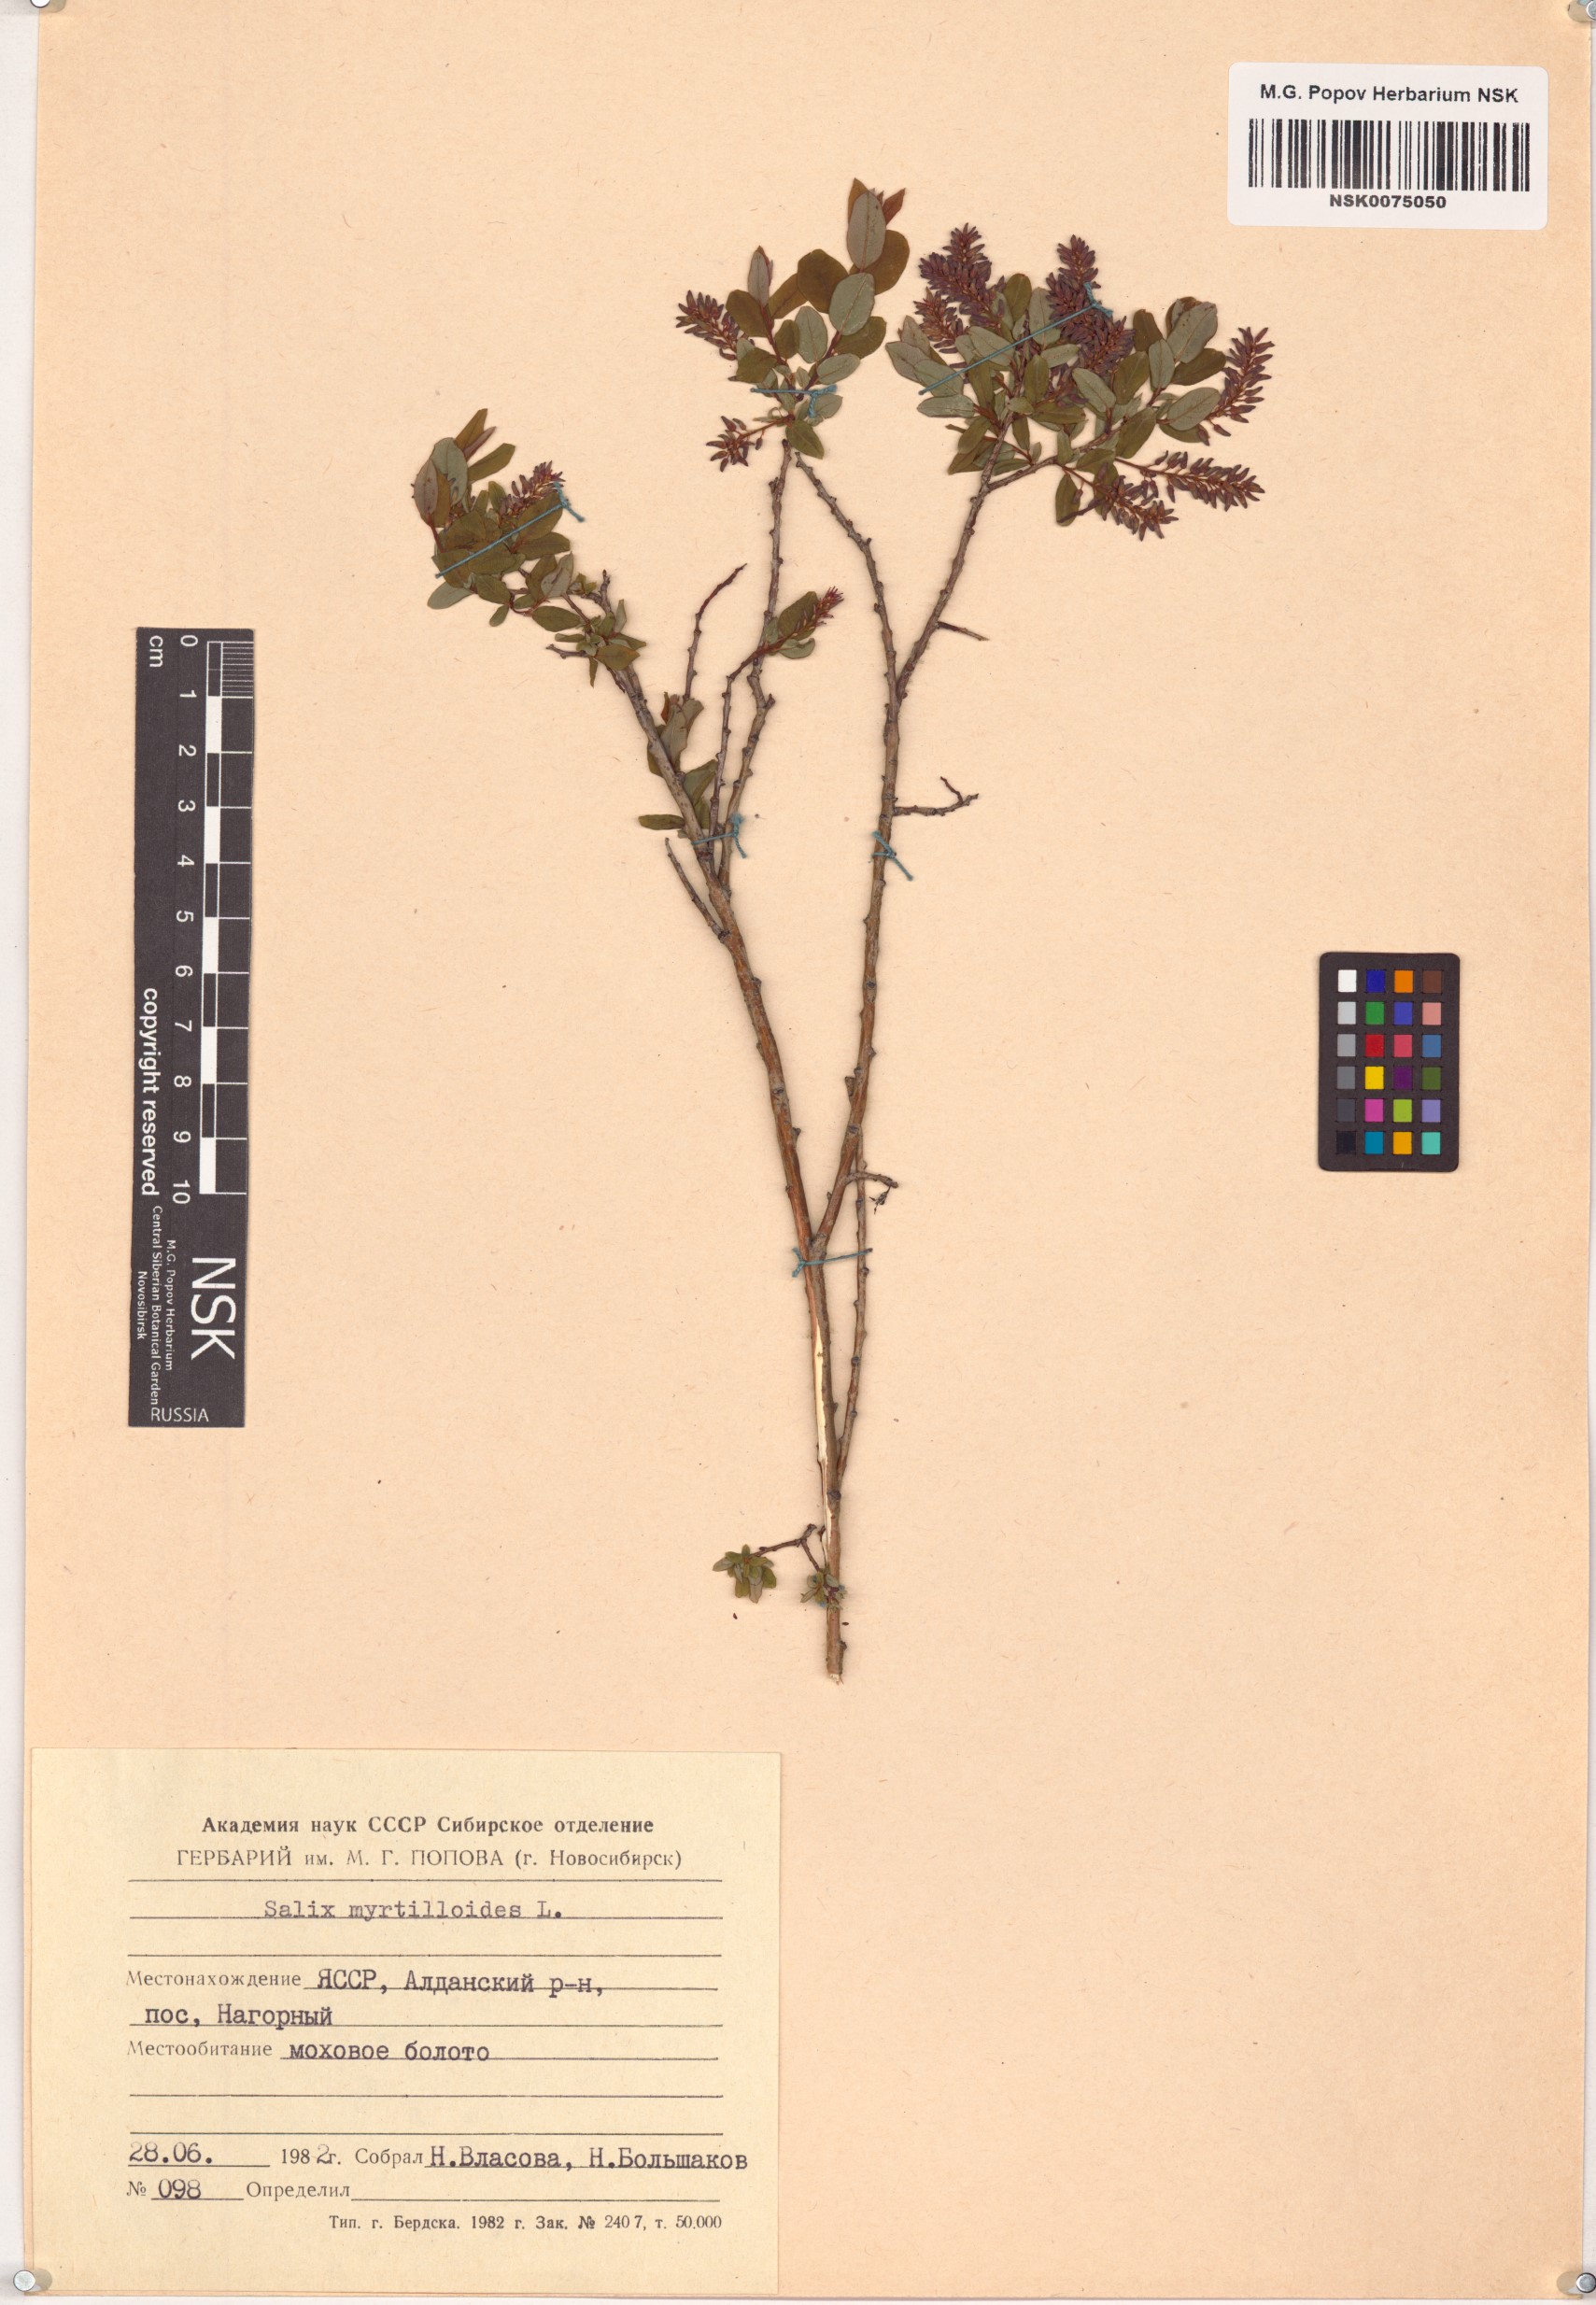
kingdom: Plantae
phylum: Tracheophyta
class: Magnoliopsida
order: Malpighiales
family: Salicaceae
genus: Salix
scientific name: Salix myrtilloides
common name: Myrtle-leaved willow
